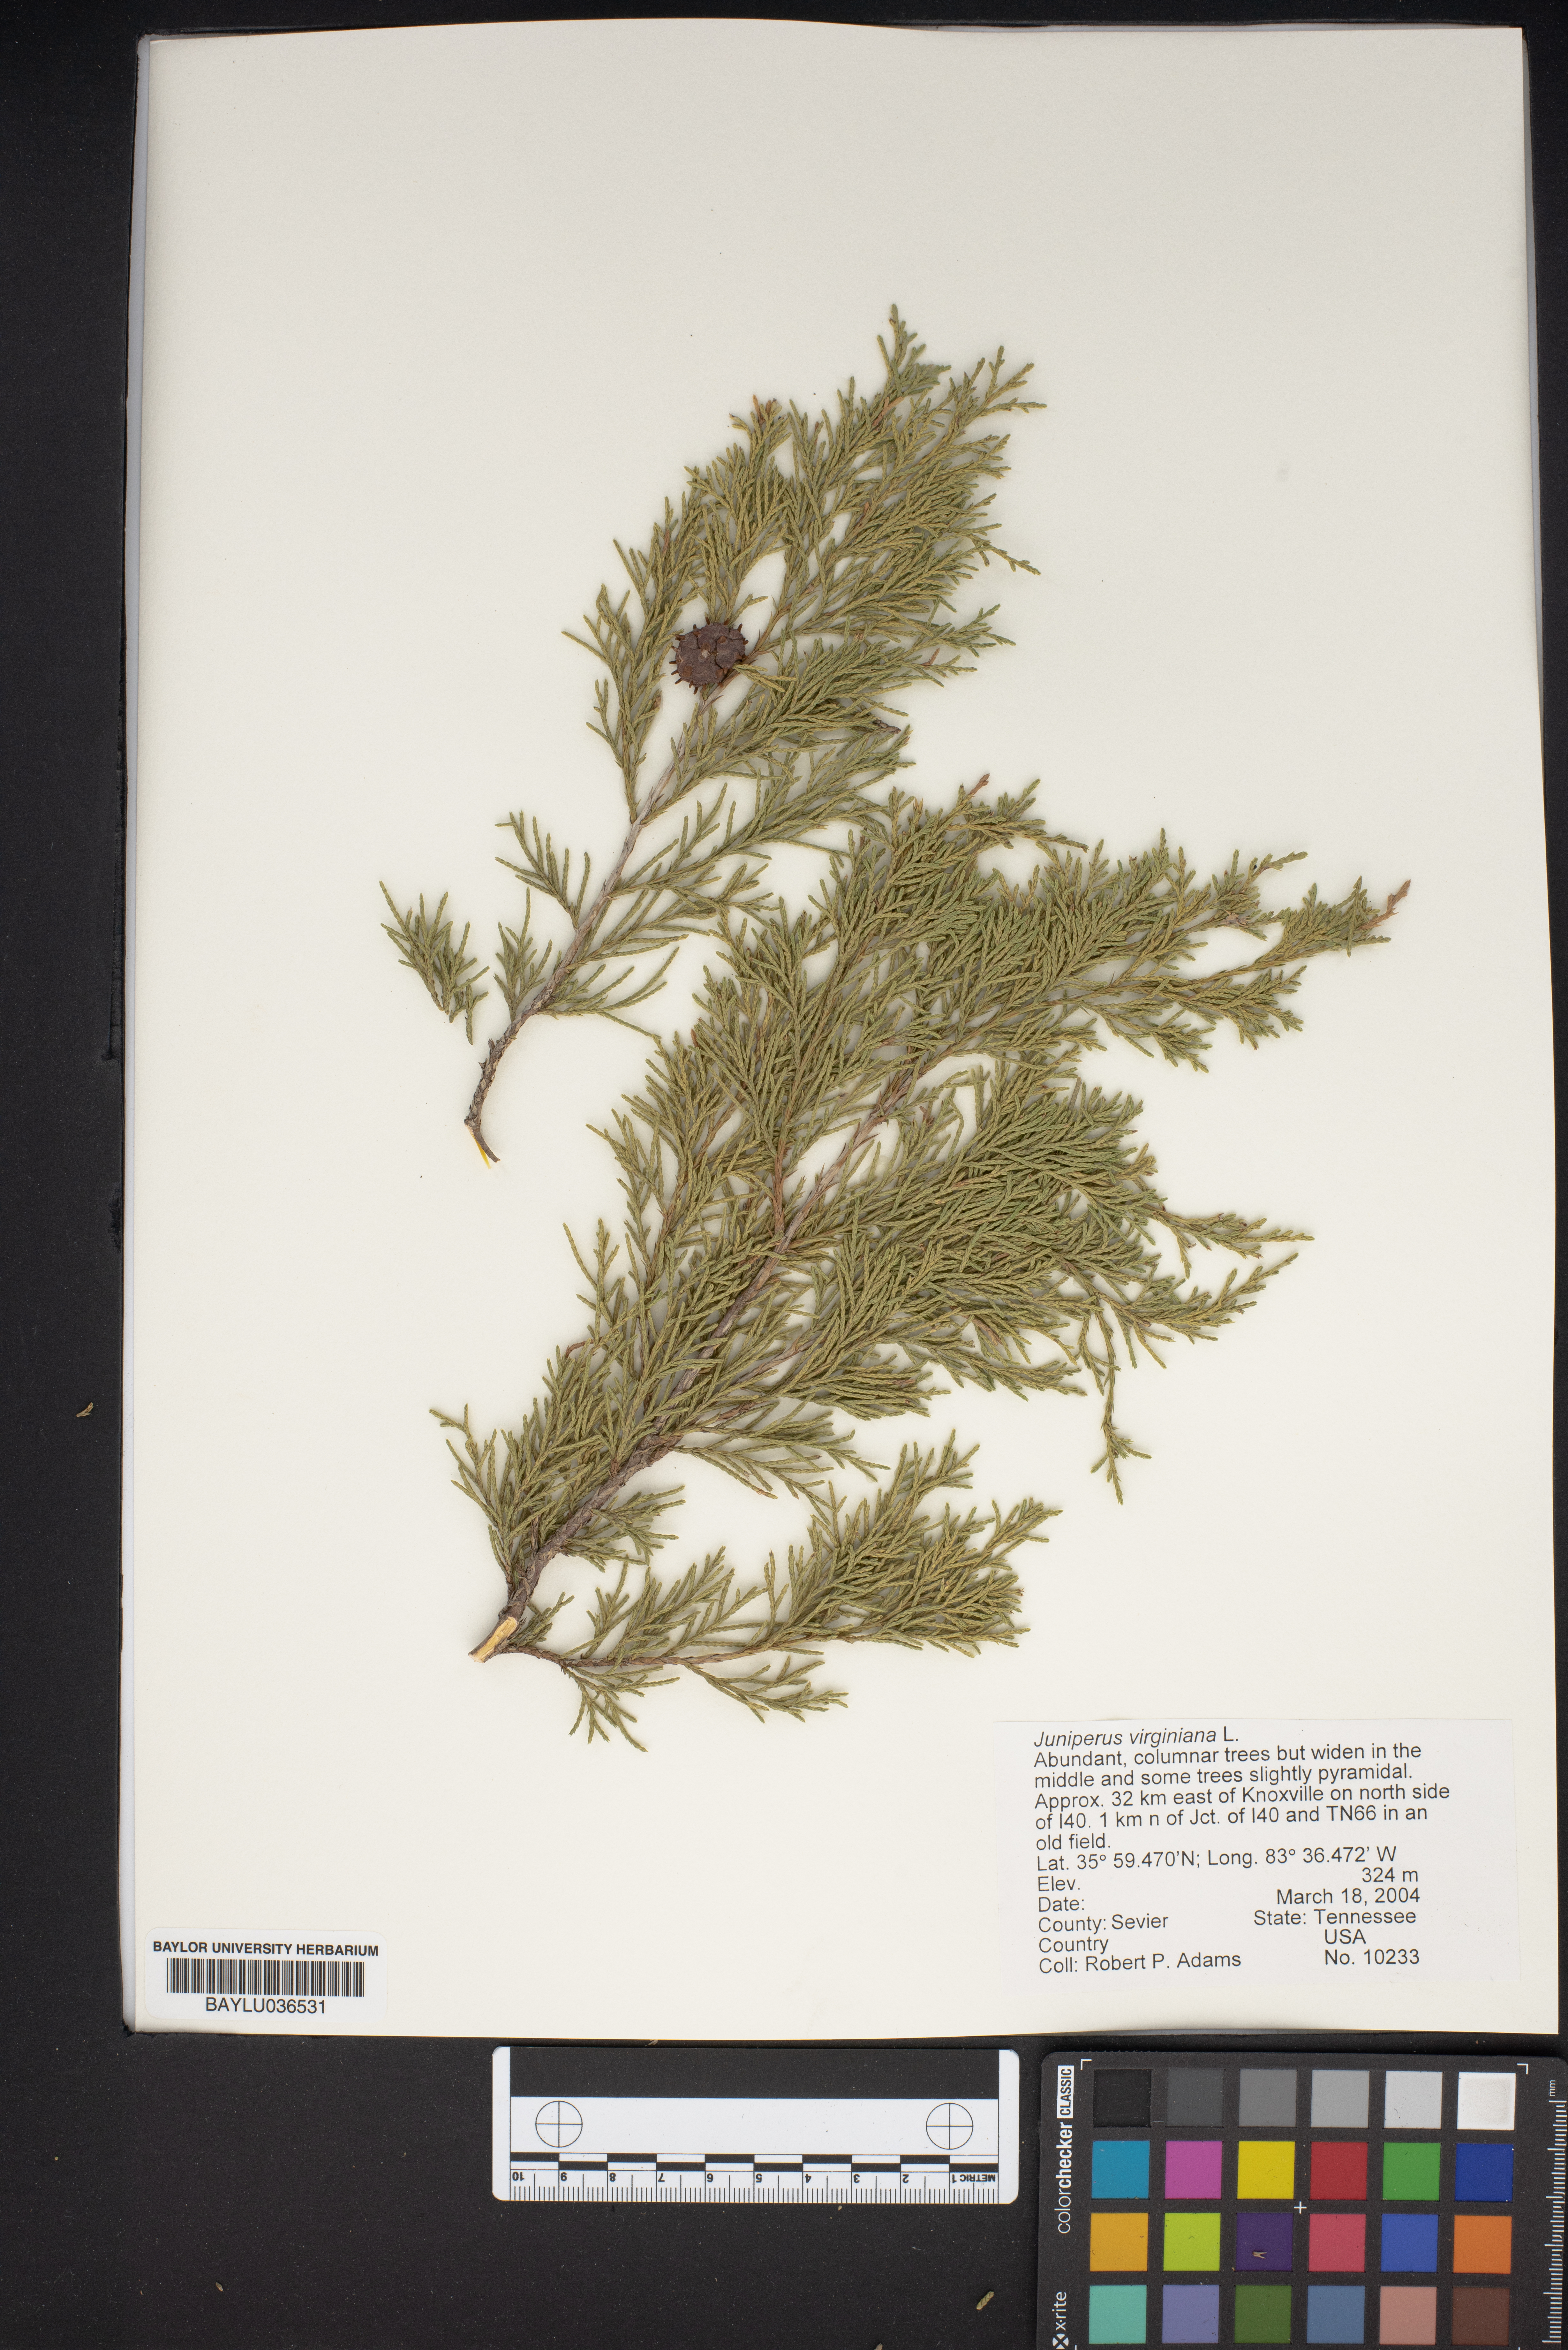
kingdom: Plantae
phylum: Tracheophyta
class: Pinopsida
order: Pinales
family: Cupressaceae
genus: Juniperus
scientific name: Juniperus virginiana
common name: Red juniper
